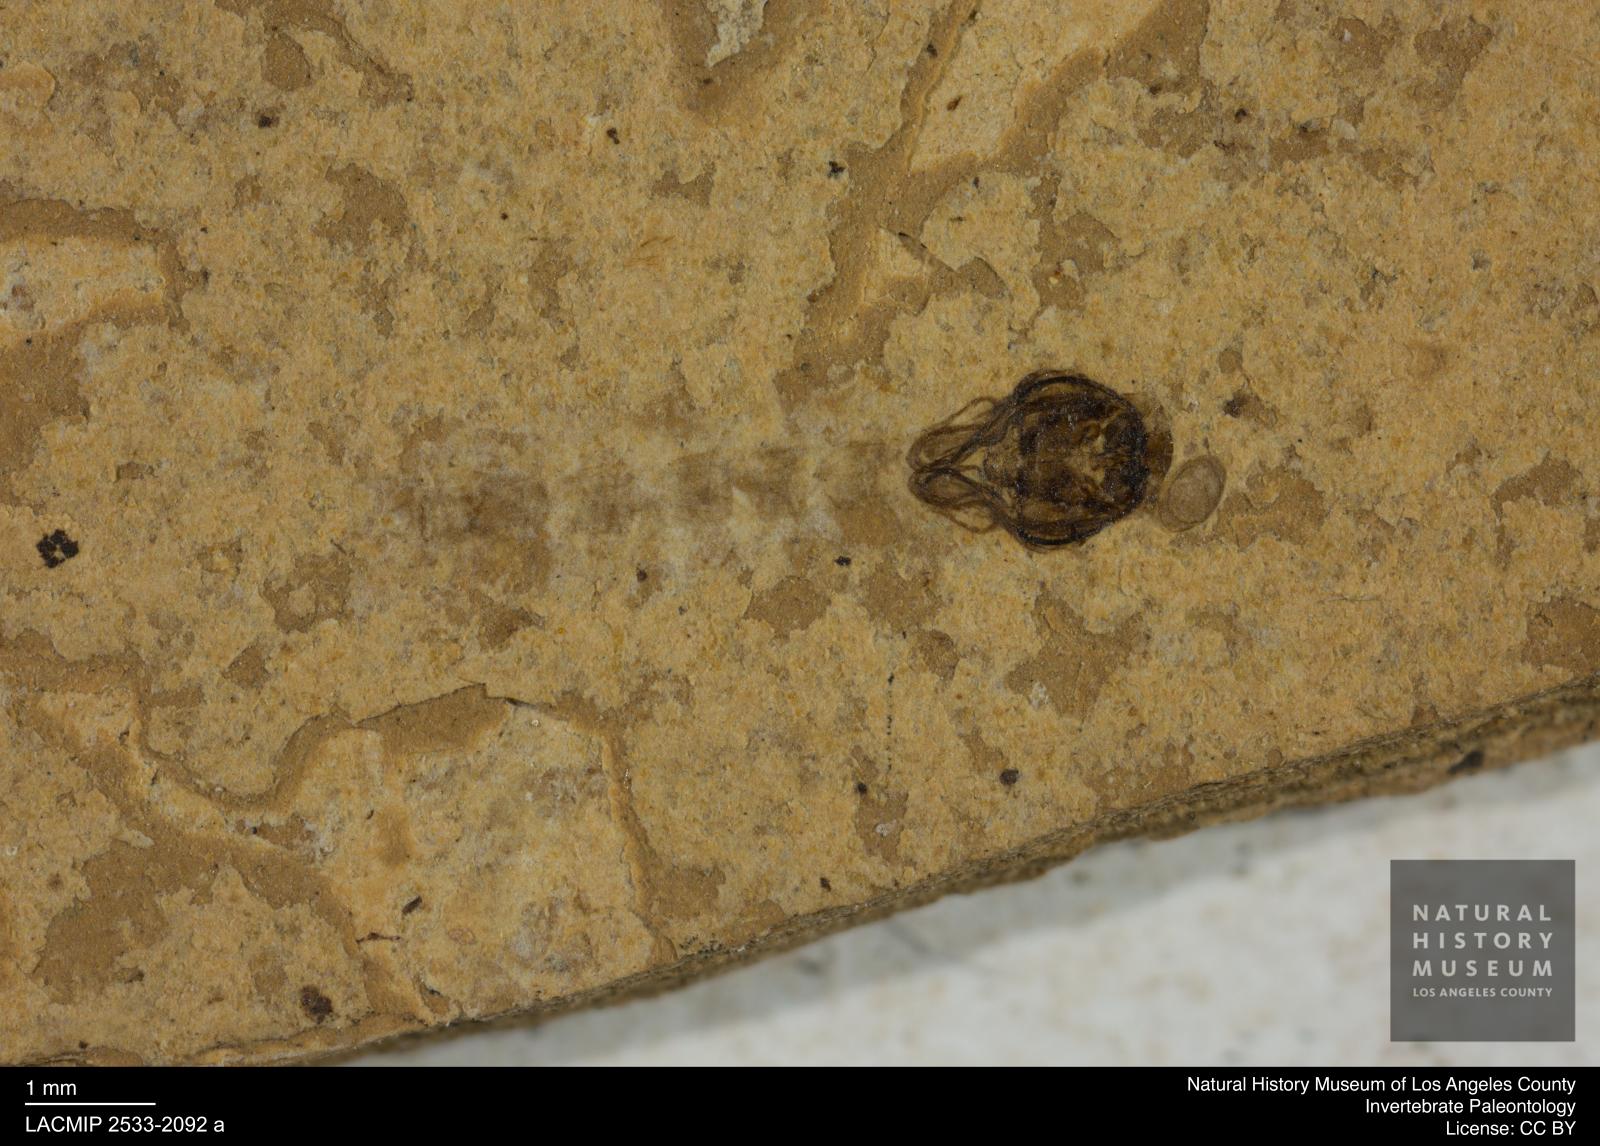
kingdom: Animalia
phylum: Arthropoda
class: Insecta
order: Diptera
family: Chironomidae
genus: Pelopiina
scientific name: Pelopiina
